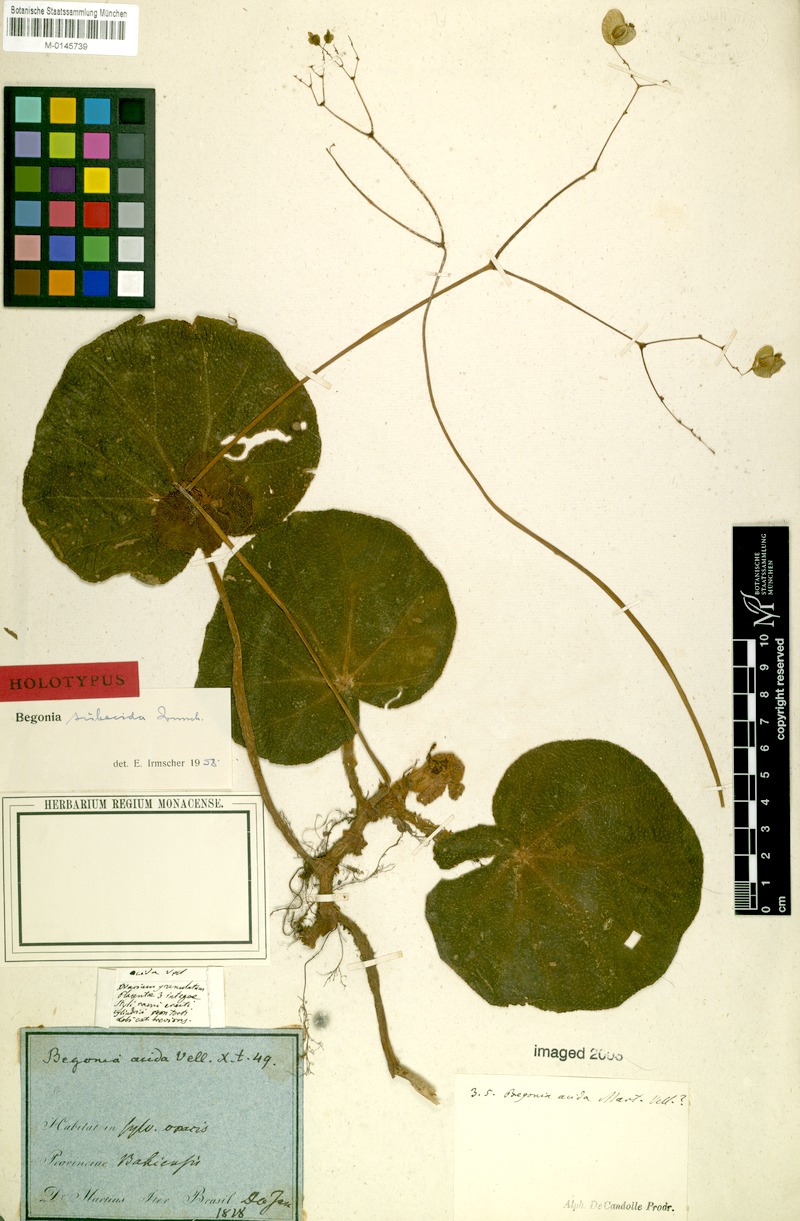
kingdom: Plantae
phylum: Tracheophyta
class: Magnoliopsida
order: Cucurbitales
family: Begoniaceae
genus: Begonia
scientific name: Begonia subacida
